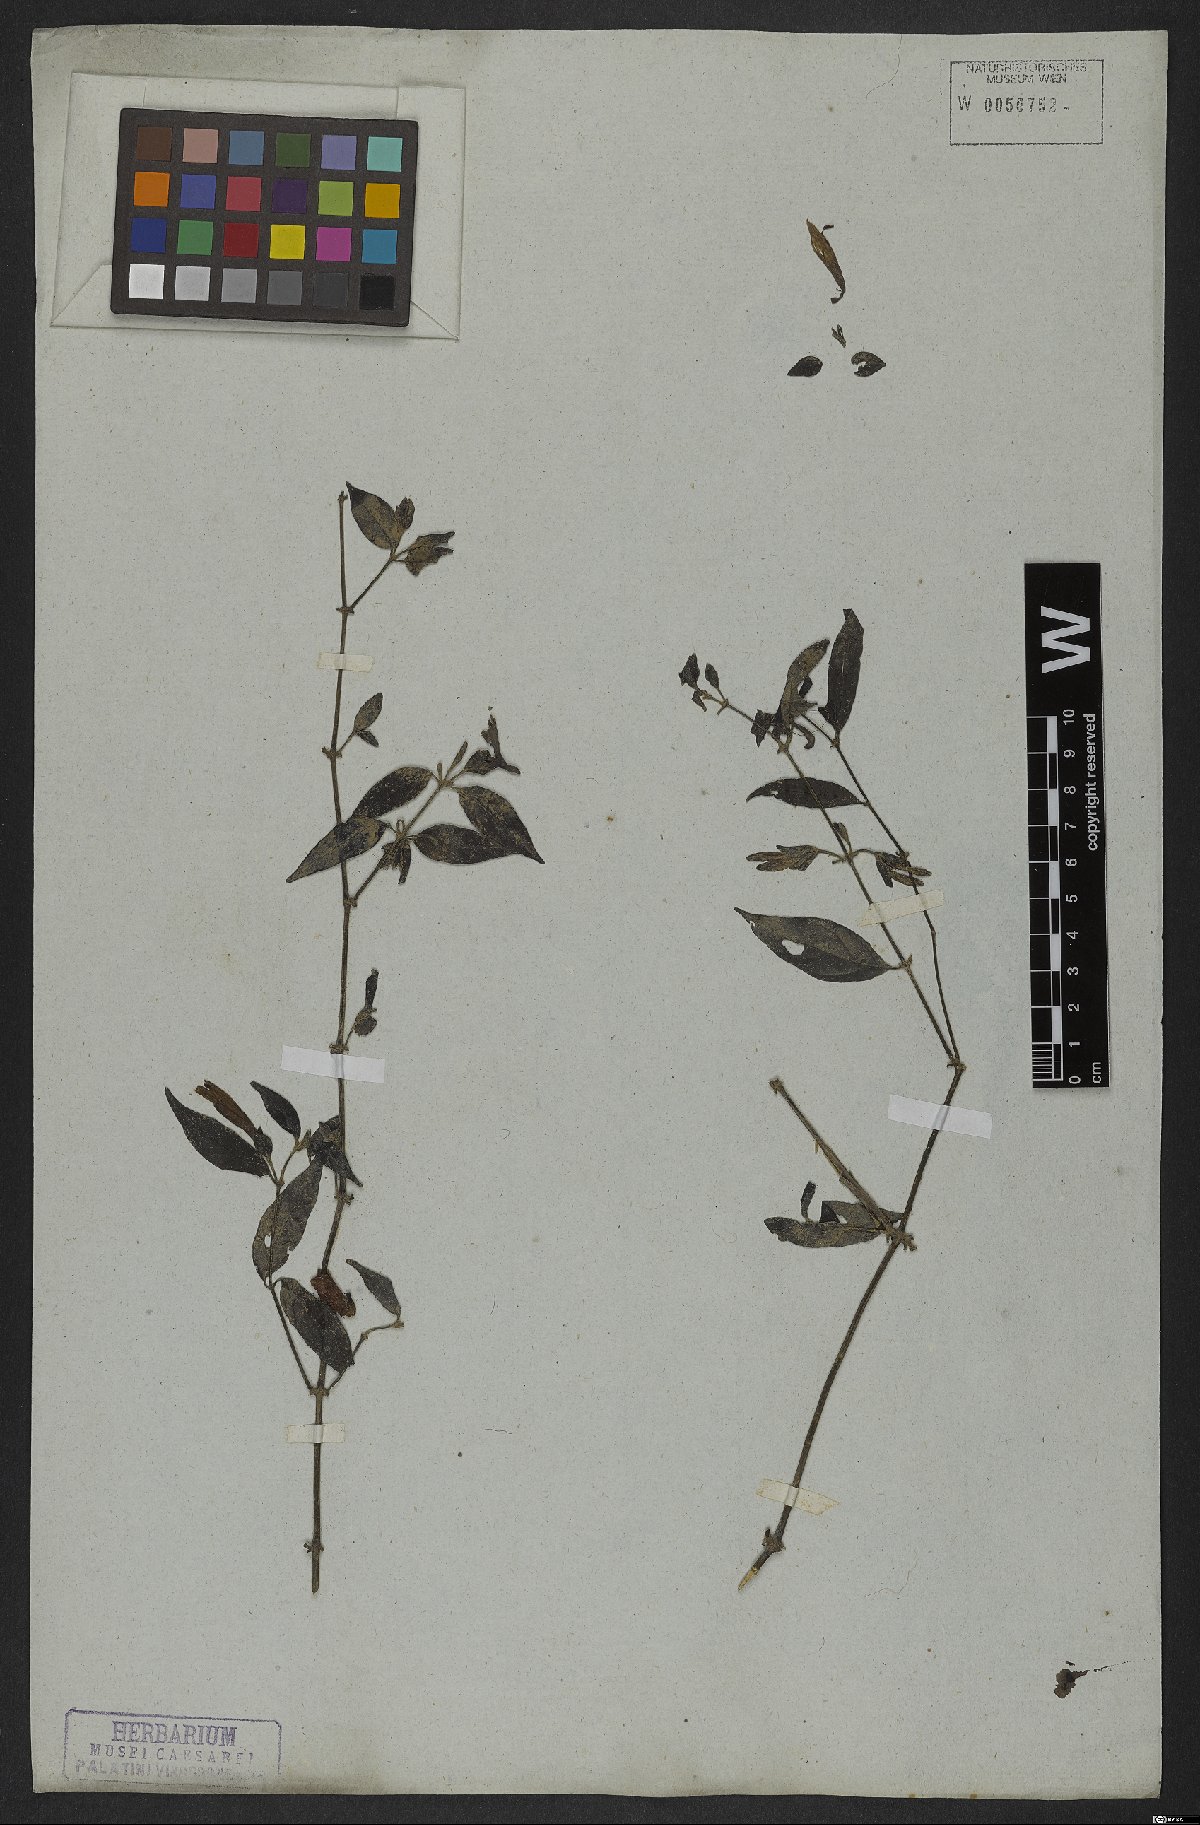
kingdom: Plantae
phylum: Tracheophyta
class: Magnoliopsida
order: Lamiales
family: Acanthaceae
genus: Justicia
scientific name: Justicia involucrata
